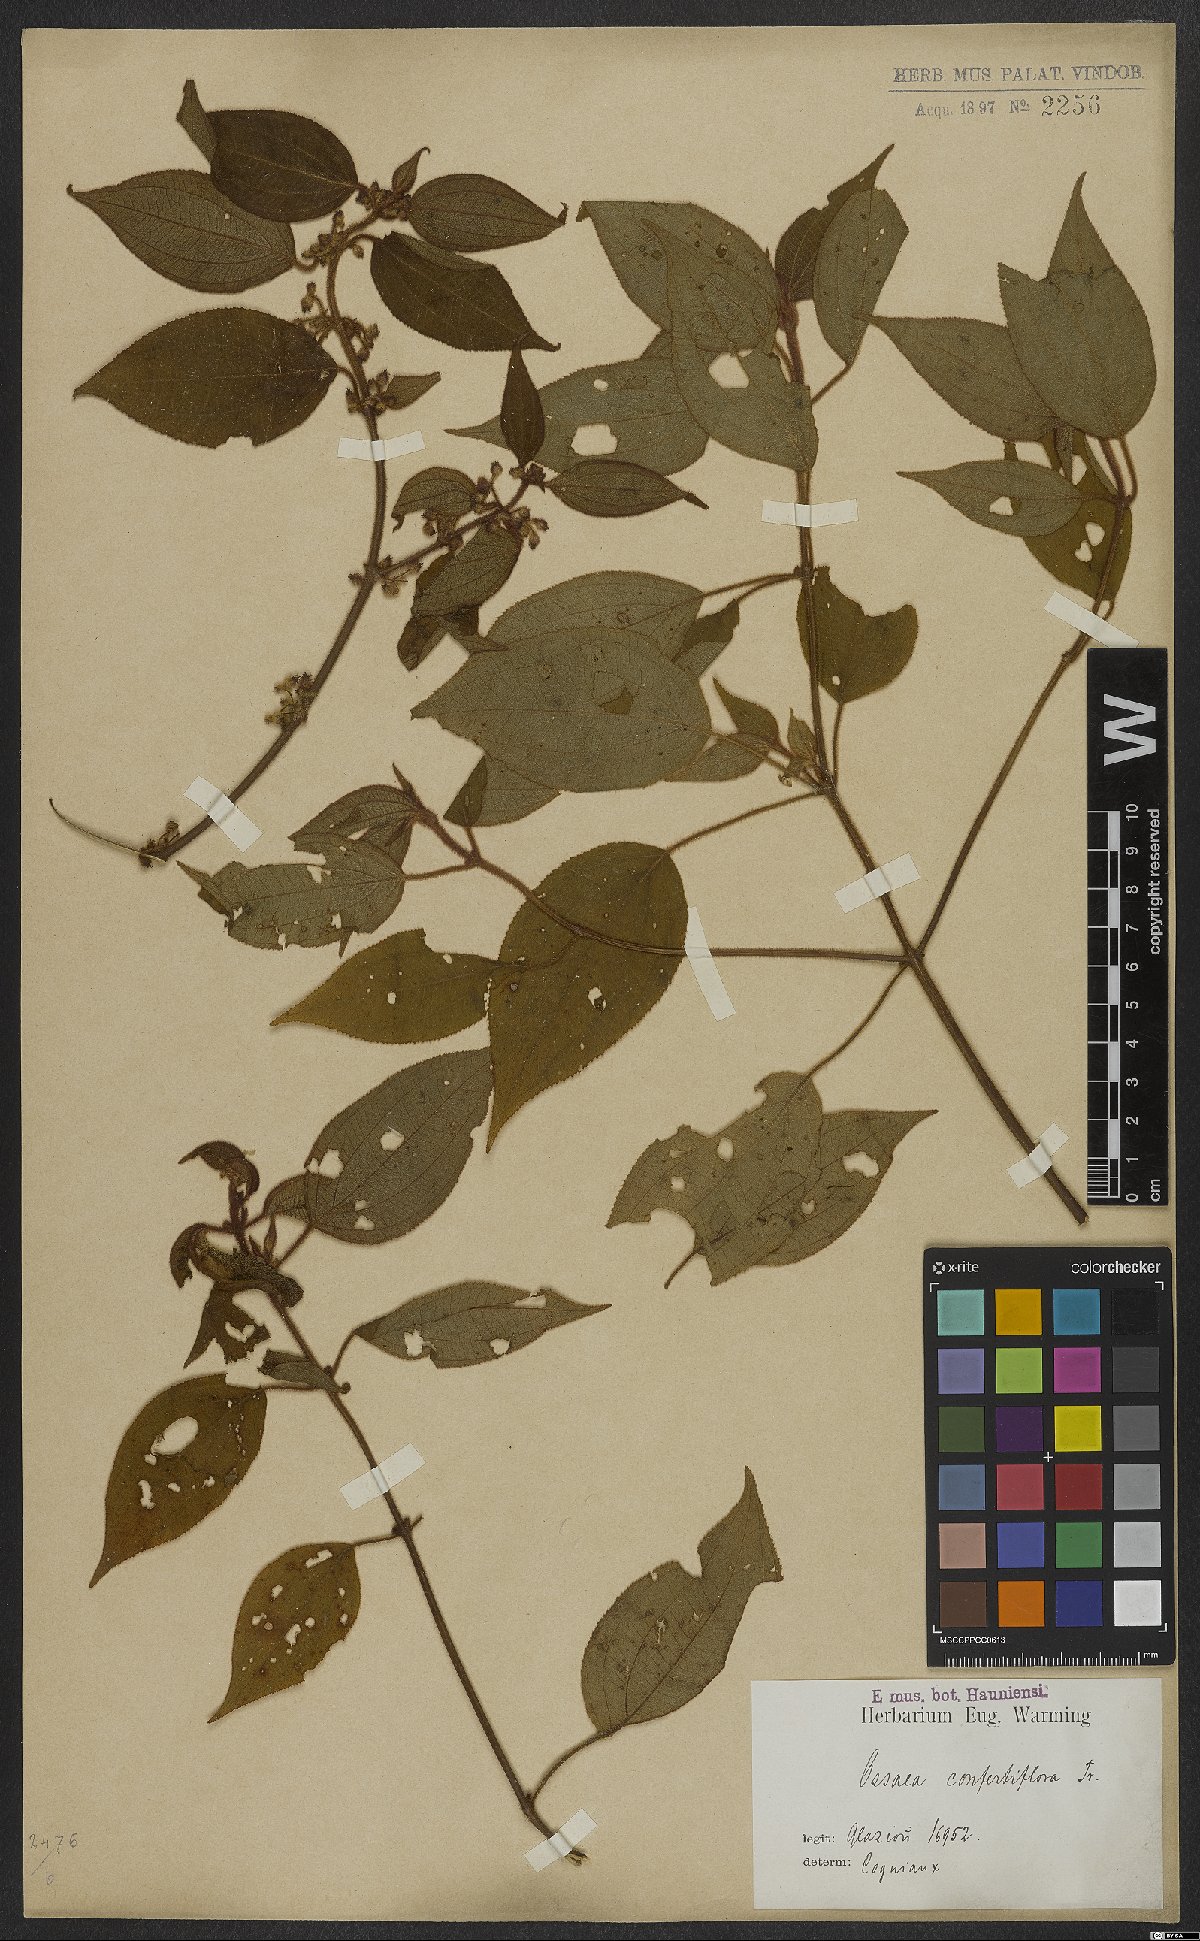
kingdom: Plantae
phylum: Tracheophyta
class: Magnoliopsida
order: Myrtales
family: Melastomataceae
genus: Miconia
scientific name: Miconia rubella
